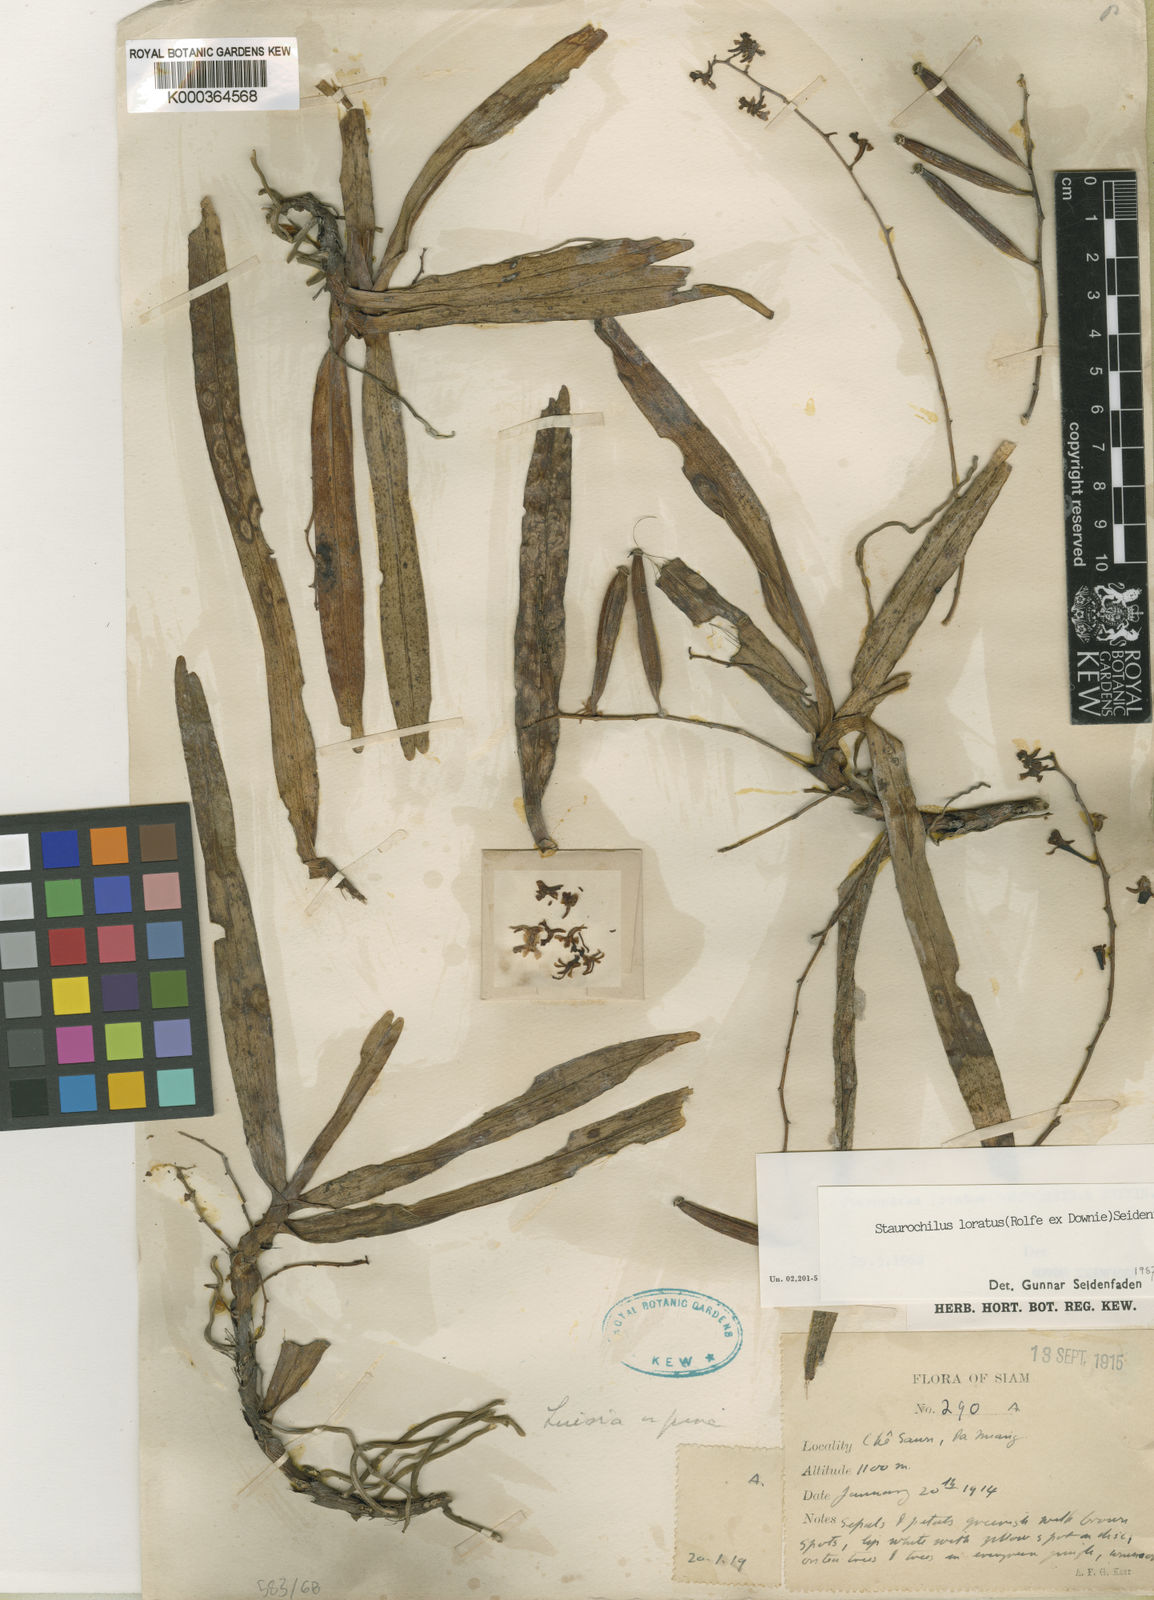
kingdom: Plantae
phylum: Tracheophyta
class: Liliopsida
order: Asparagales
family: Orchidaceae
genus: Trichoglottis
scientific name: Trichoglottis lorata
